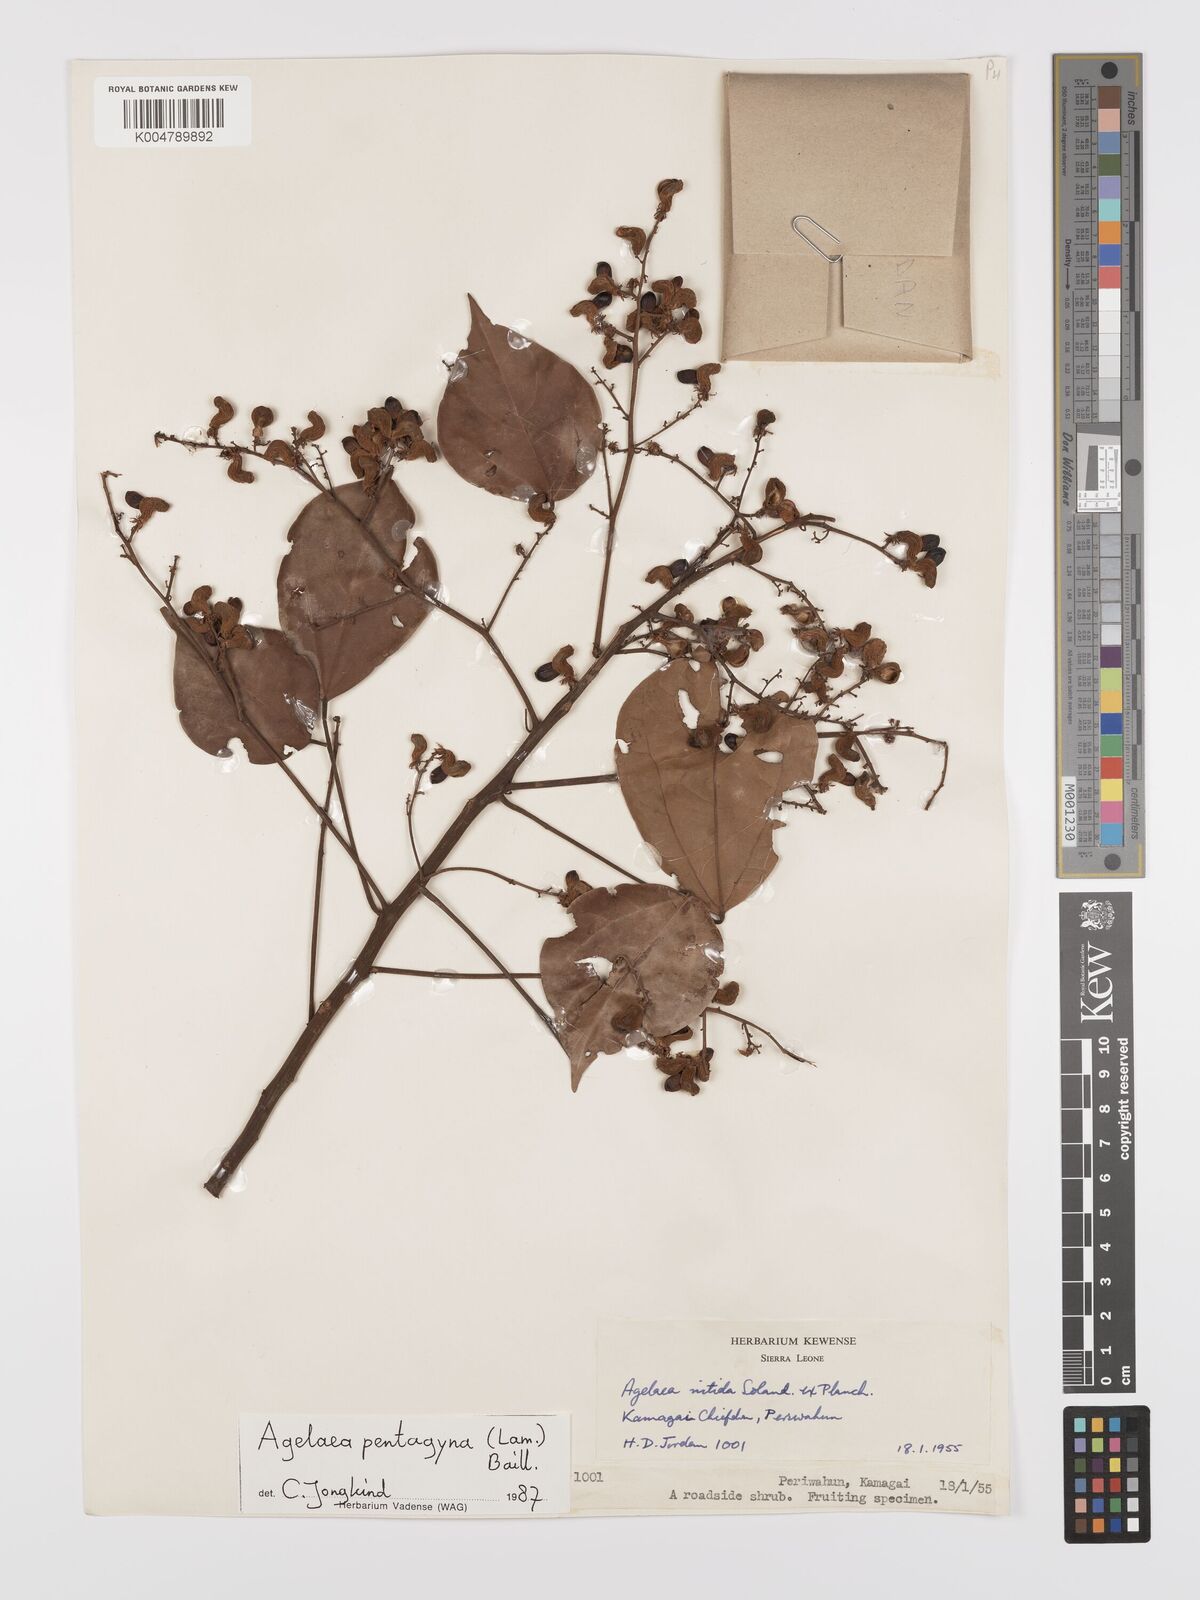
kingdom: Plantae
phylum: Tracheophyta
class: Magnoliopsida
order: Oxalidales
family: Connaraceae
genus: Agelaea
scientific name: Agelaea pentagyna
